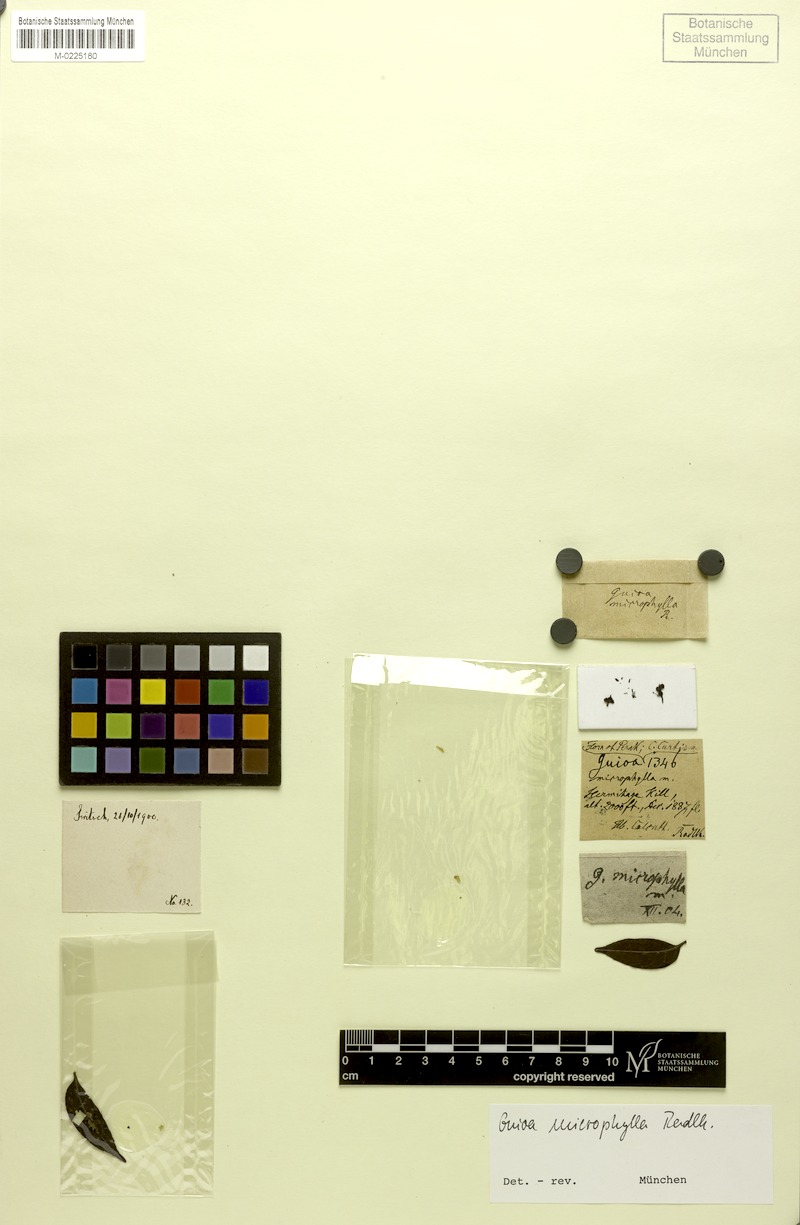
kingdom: Plantae
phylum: Tracheophyta
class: Magnoliopsida
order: Sapindales
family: Sapindaceae
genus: Guioa
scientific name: Guioa diplopetala
